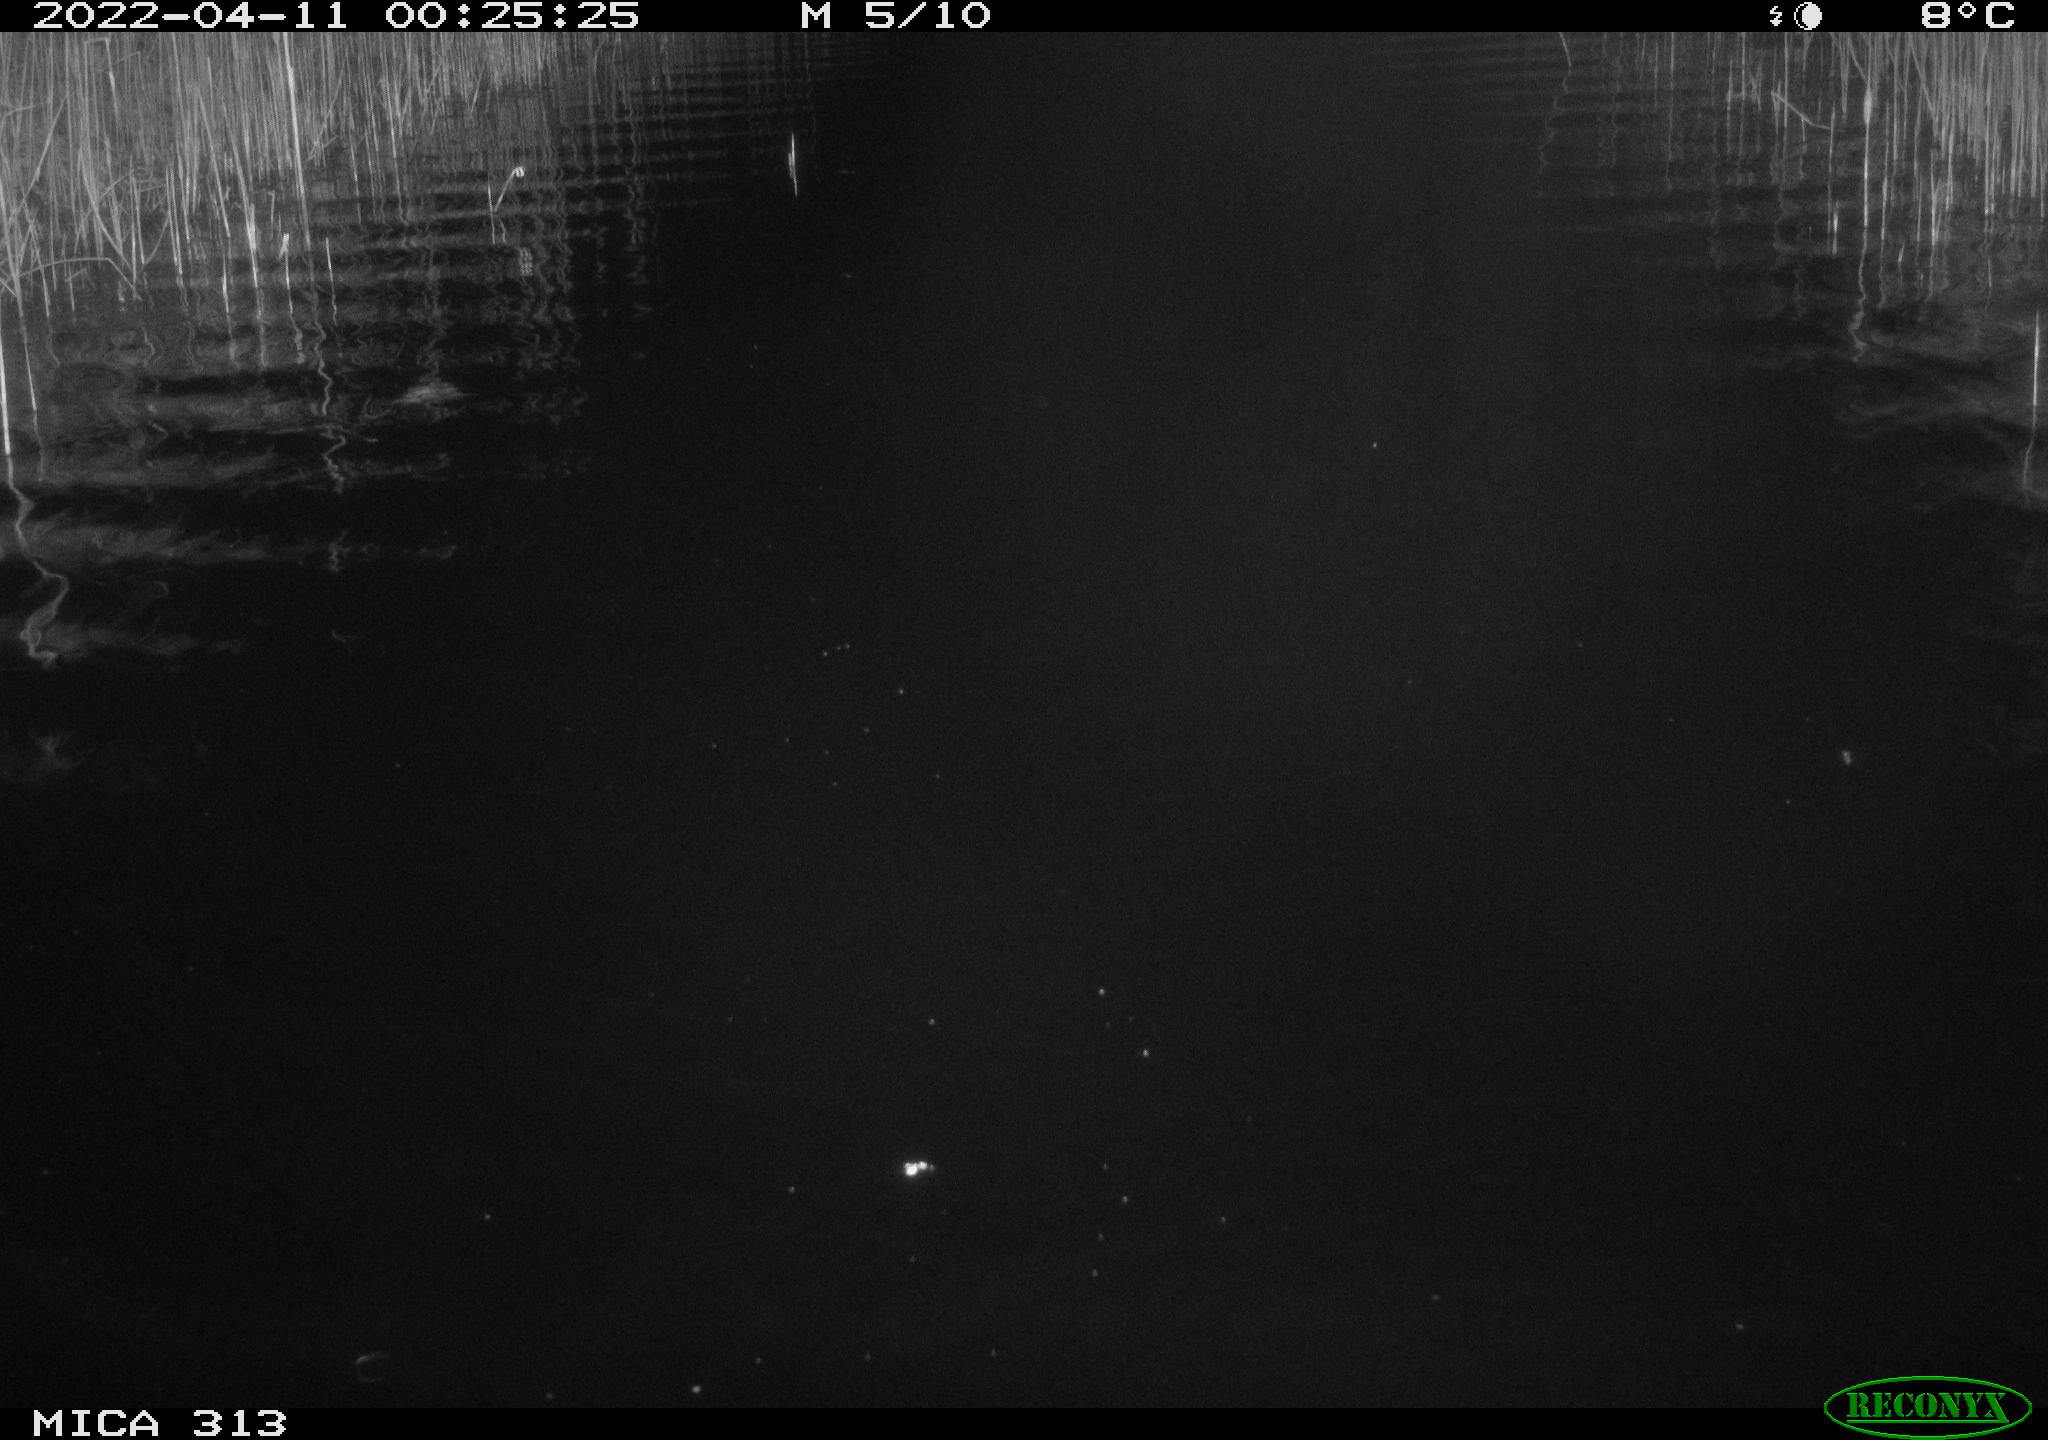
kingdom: Animalia
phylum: Chordata
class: Mammalia
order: Rodentia
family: Cricetidae
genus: Ondatra
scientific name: Ondatra zibethicus
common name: Muskrat
